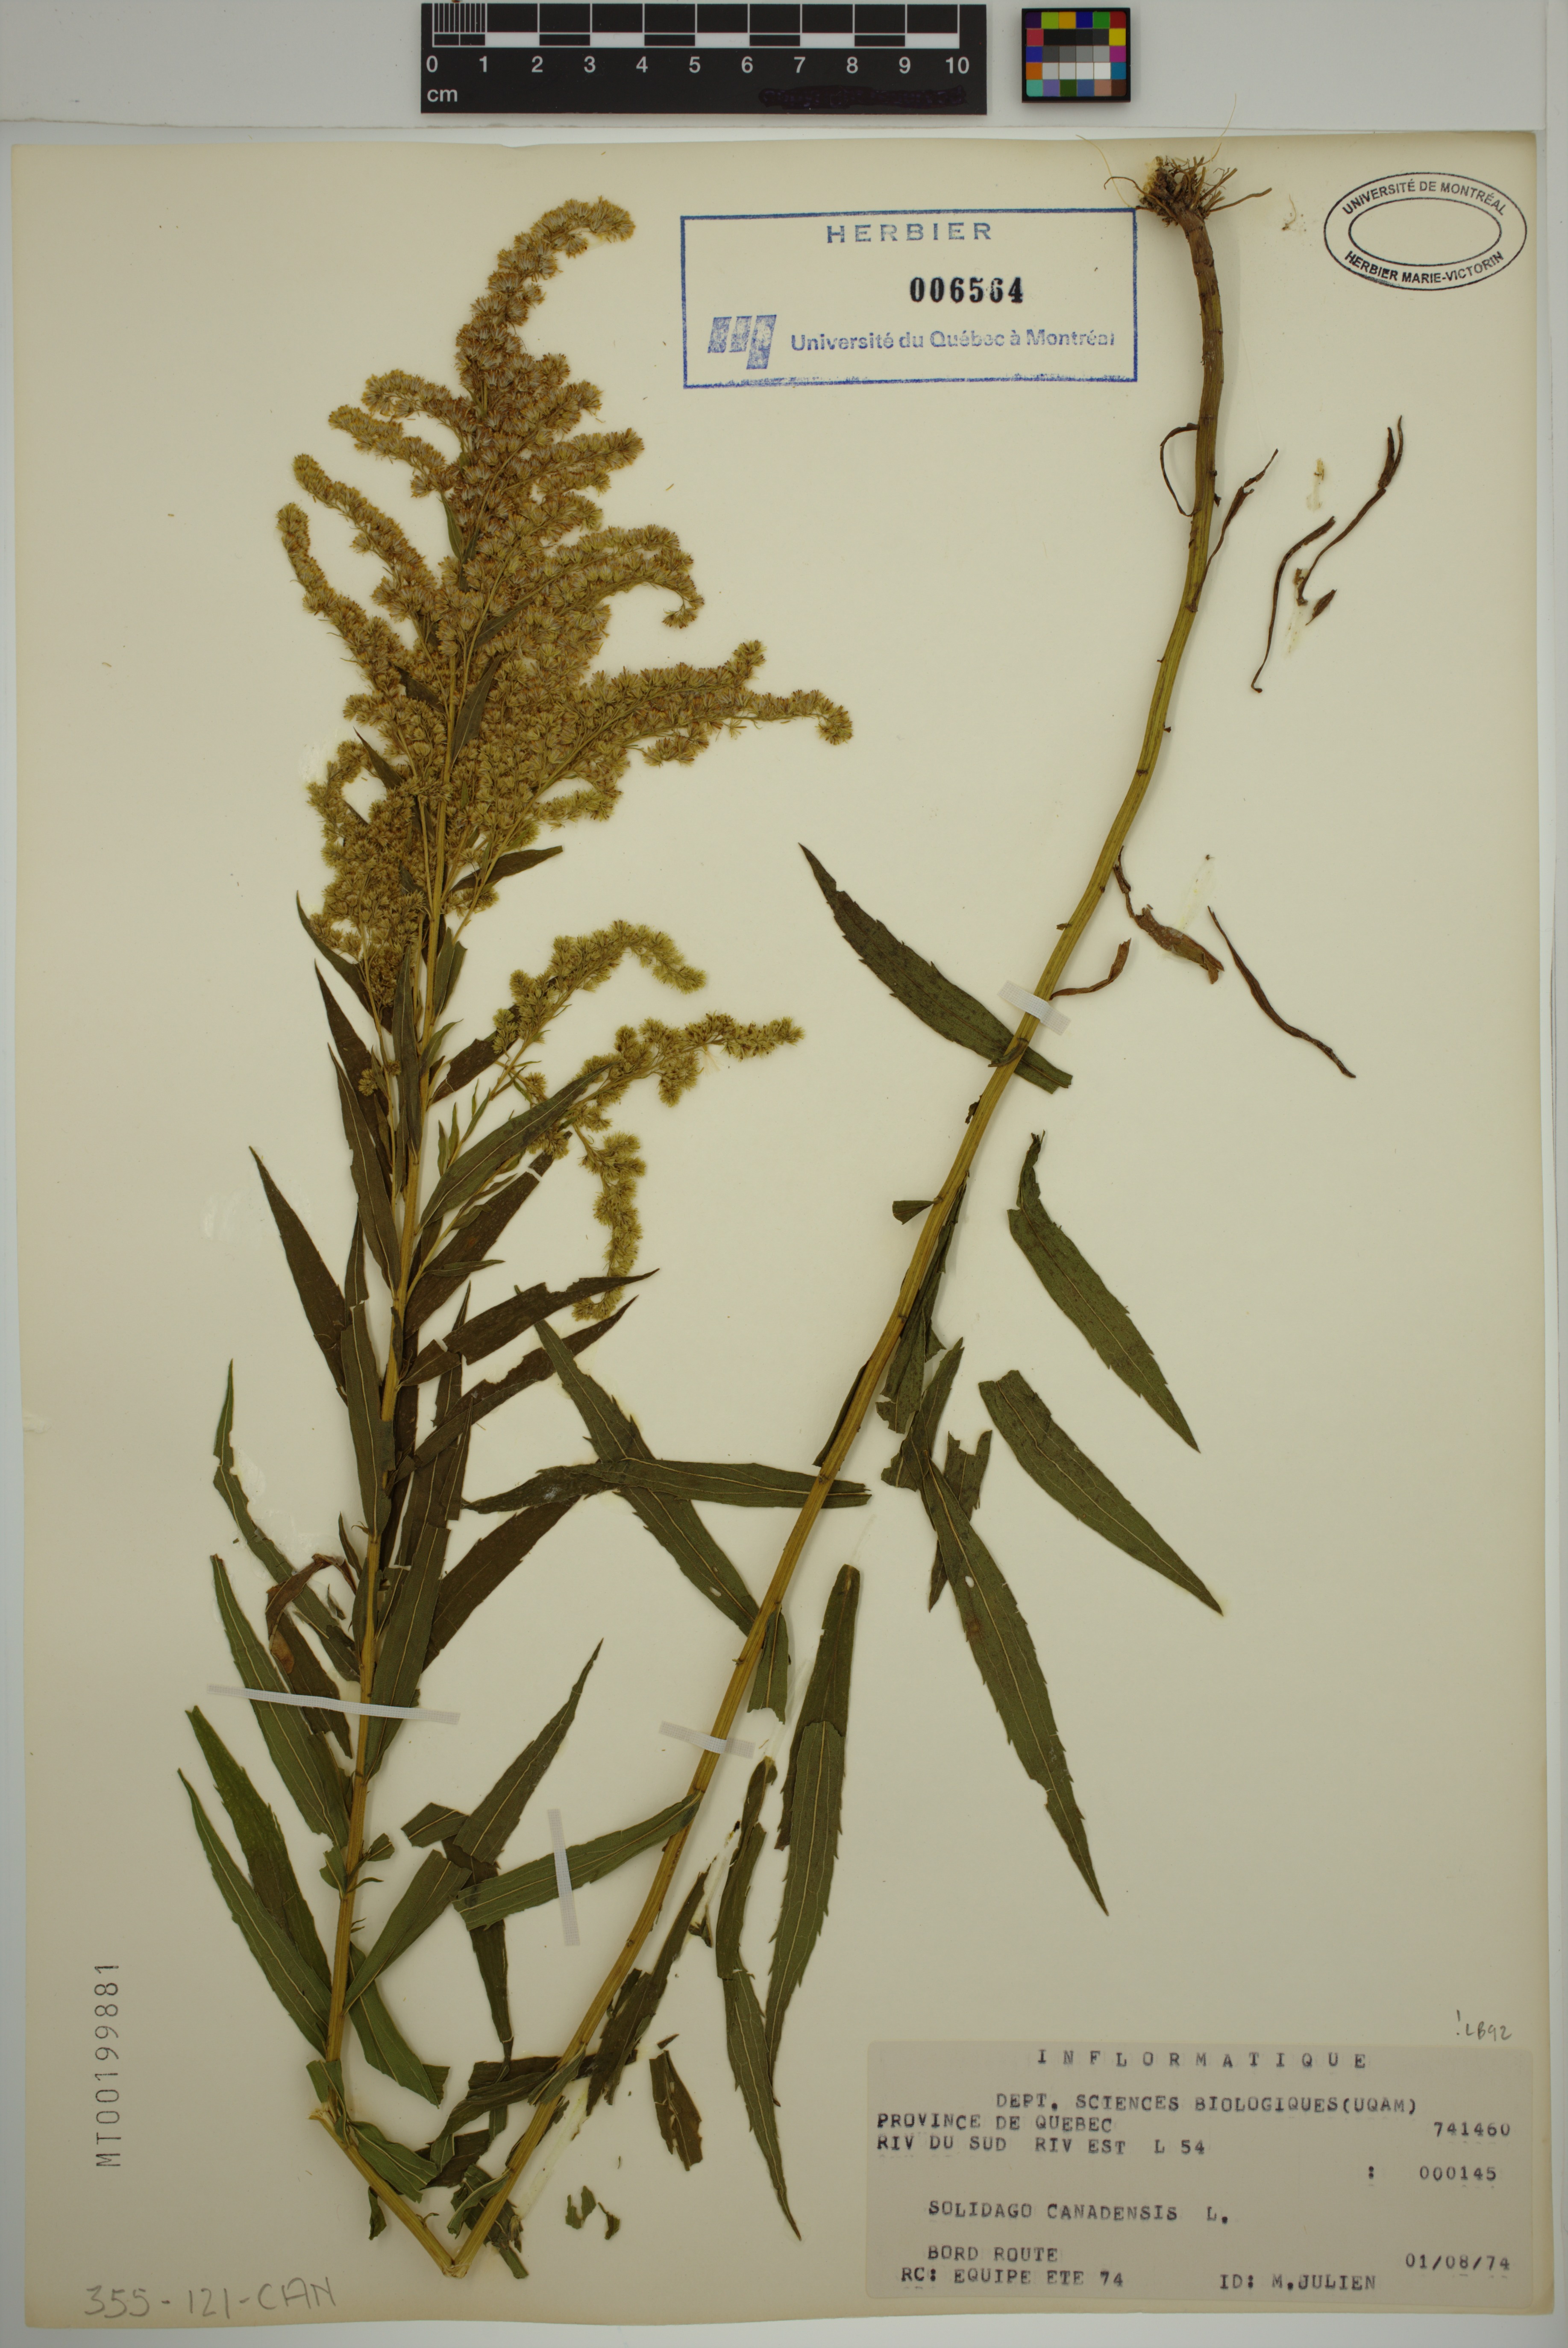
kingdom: Plantae
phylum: Tracheophyta
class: Magnoliopsida
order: Asterales
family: Asteraceae
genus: Solidago
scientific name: Solidago canadensis
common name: Canada goldenrod
